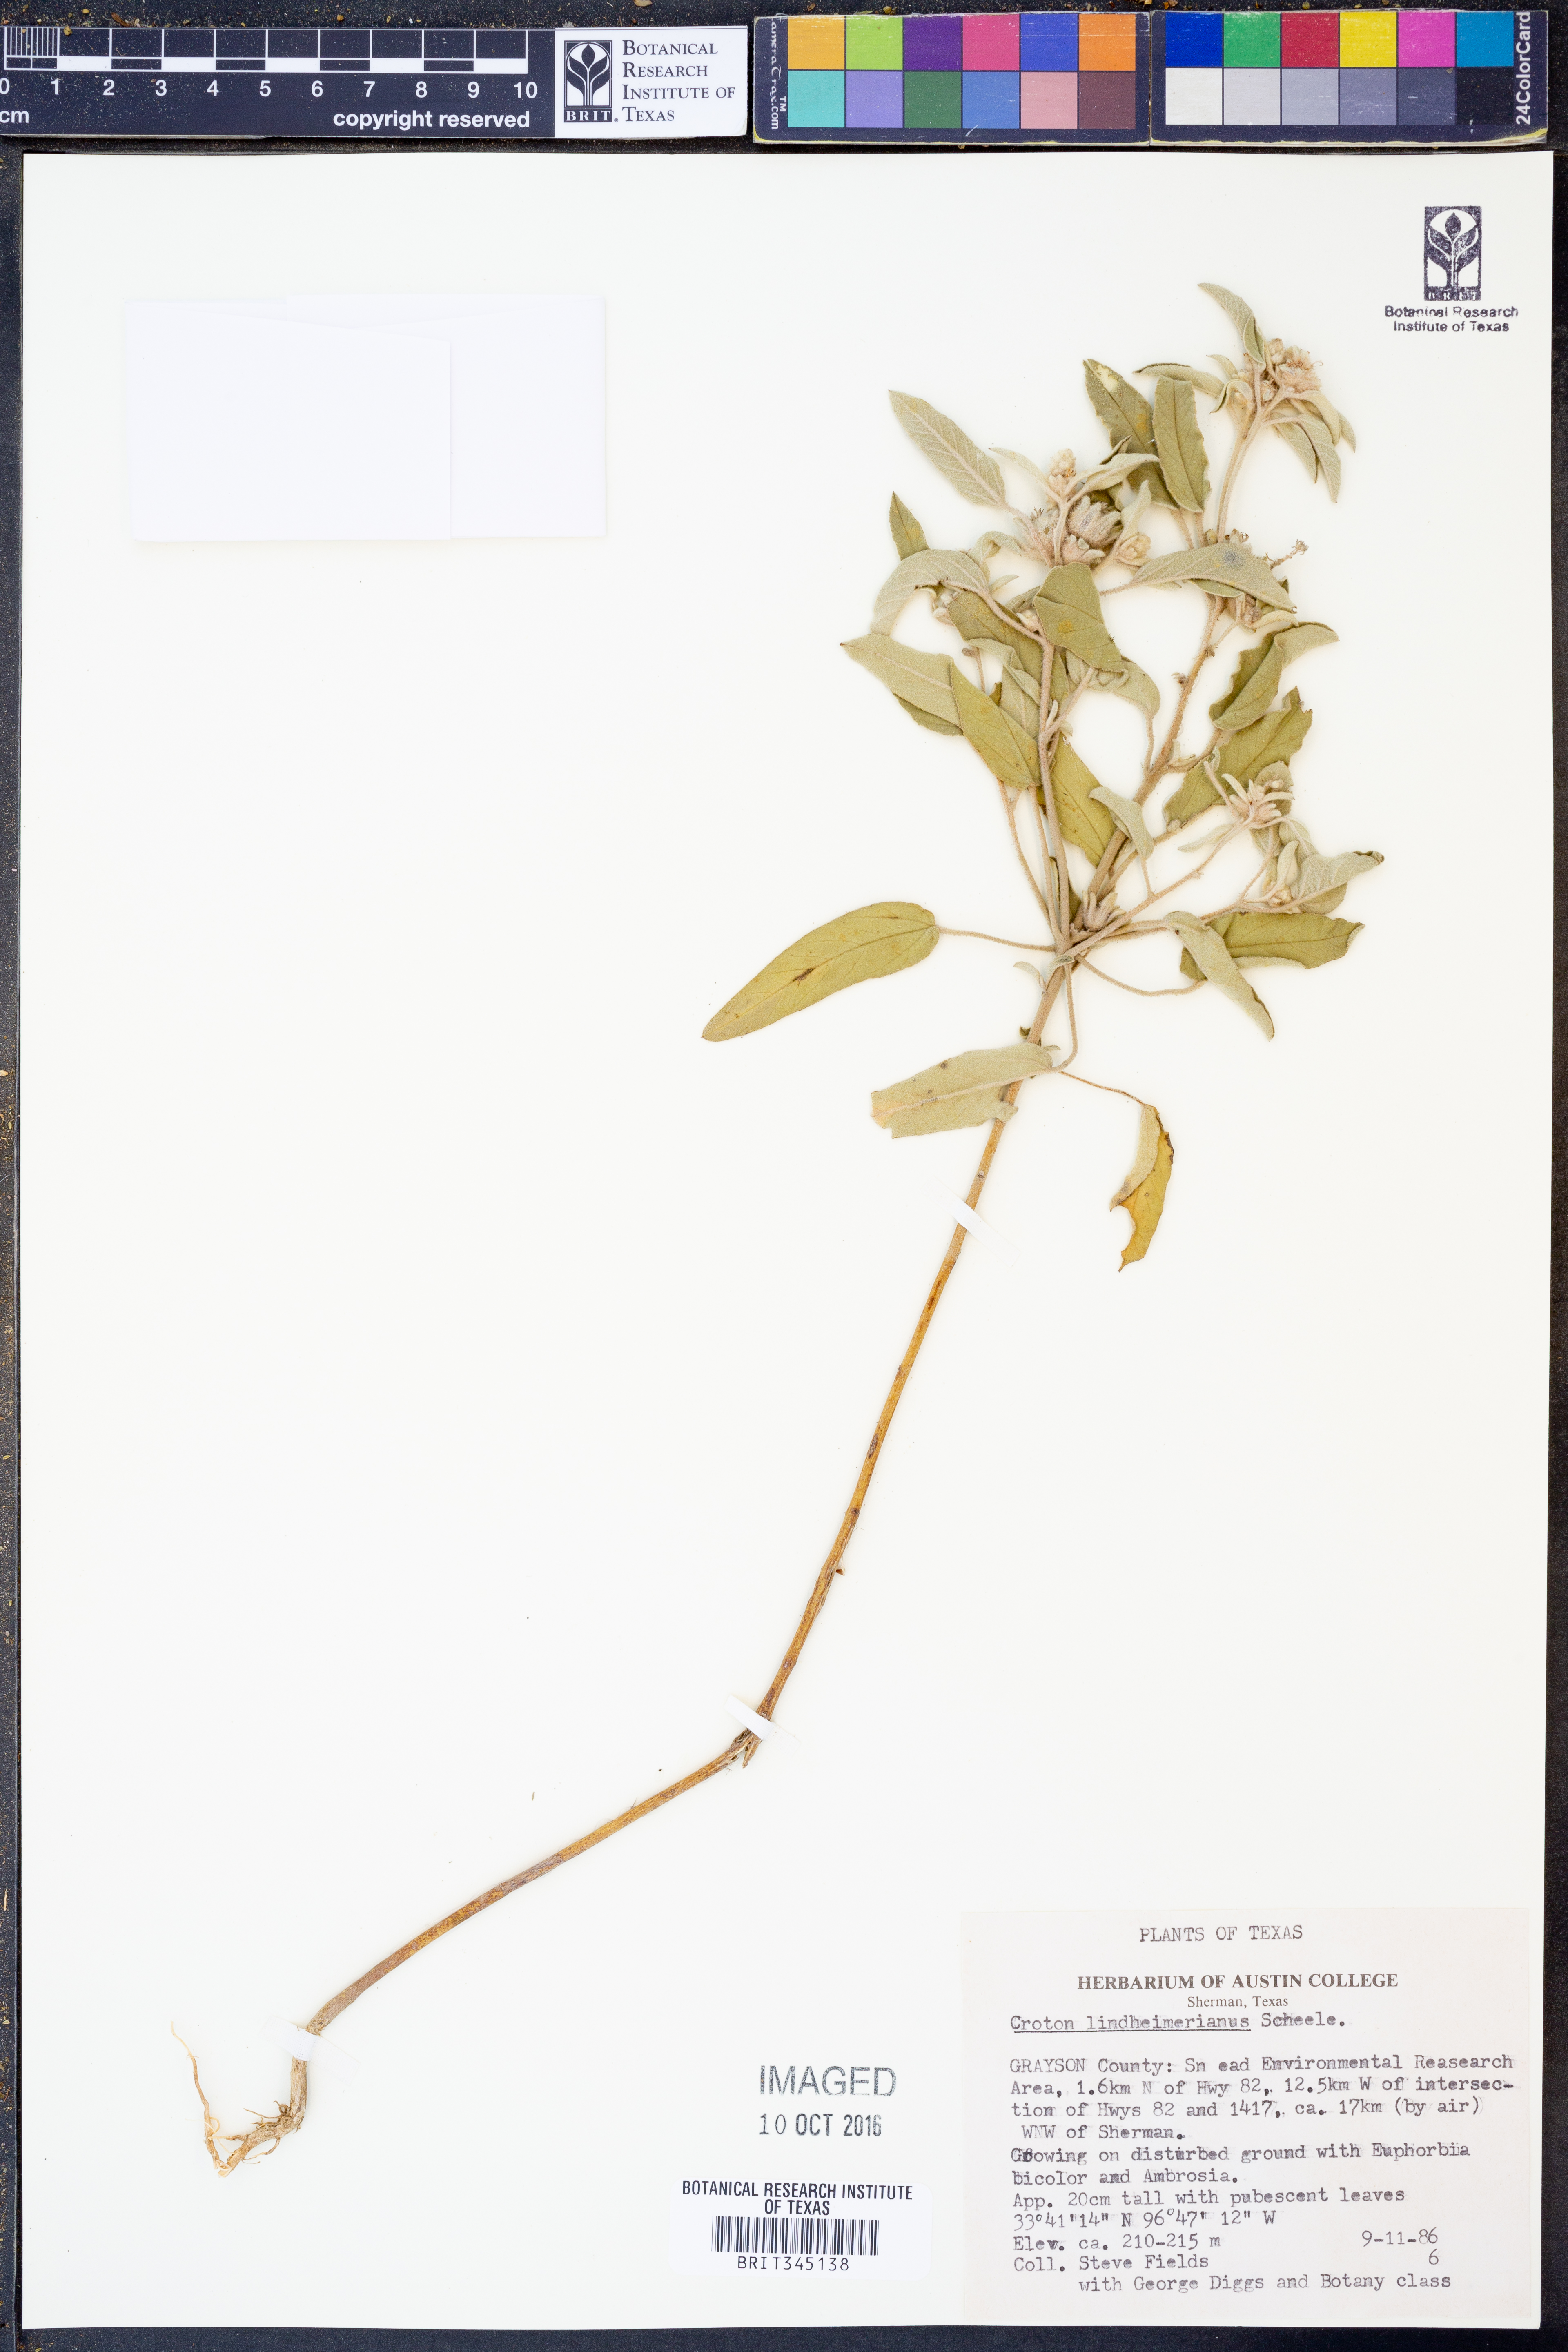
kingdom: Plantae
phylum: Tracheophyta
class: Magnoliopsida
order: Malpighiales
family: Euphorbiaceae
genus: Croton
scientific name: Croton lindheimerianus
